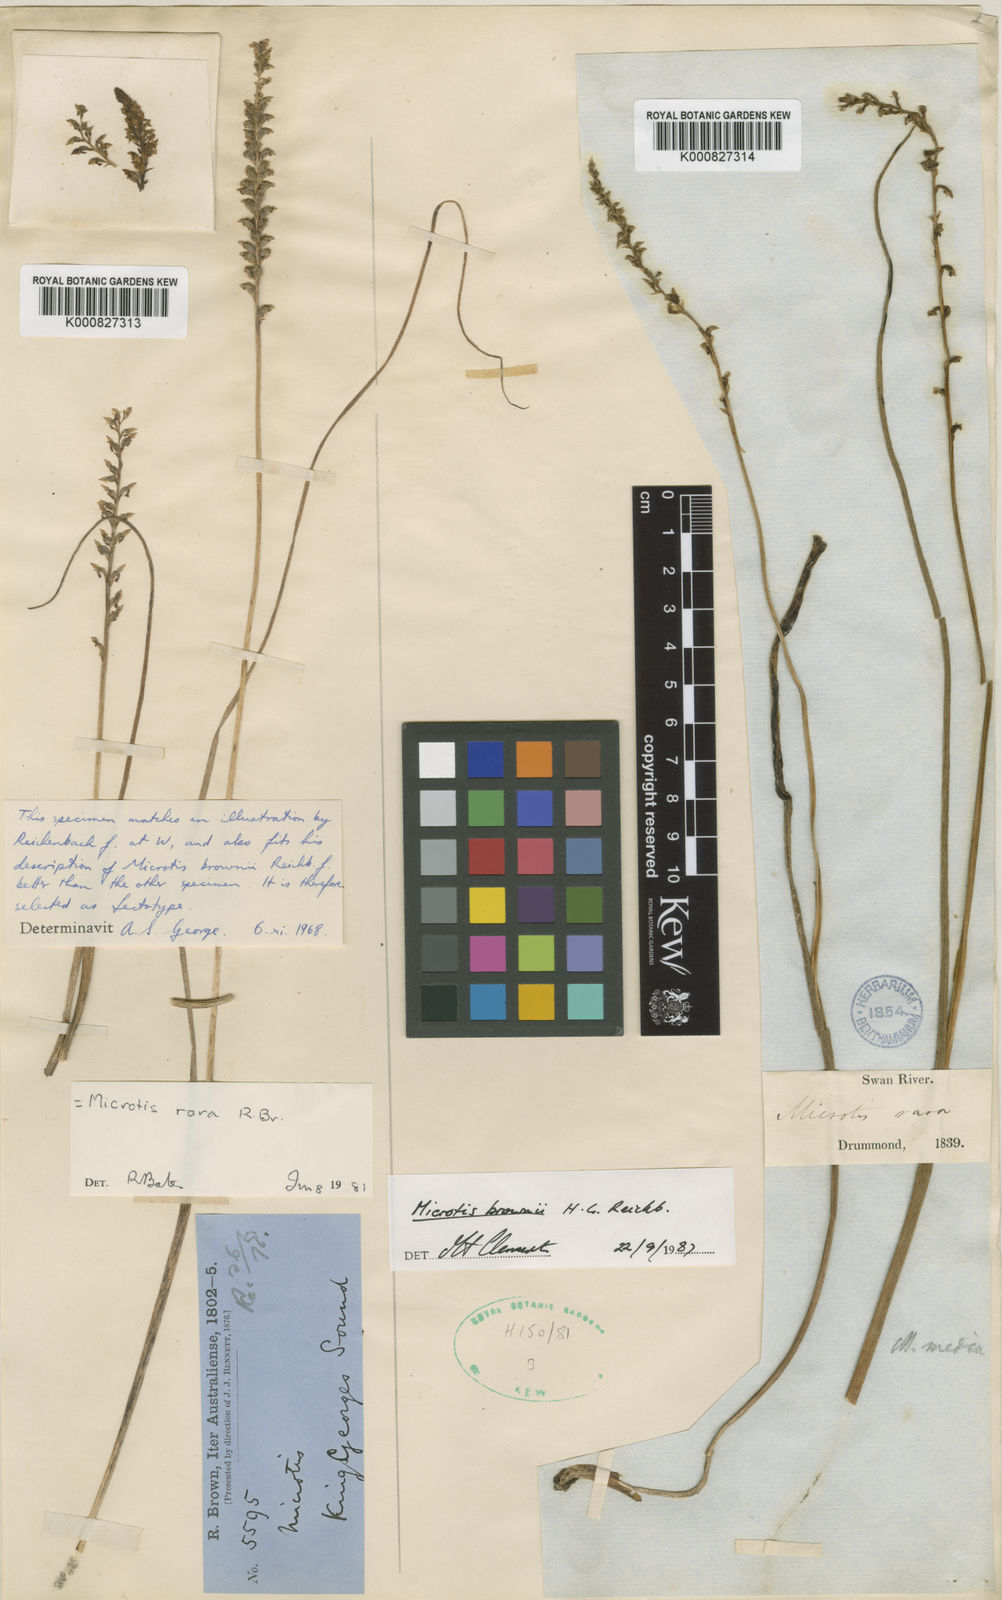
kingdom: Plantae
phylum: Tracheophyta
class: Liliopsida
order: Asparagales
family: Orchidaceae
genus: Microtis
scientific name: Microtis rara
